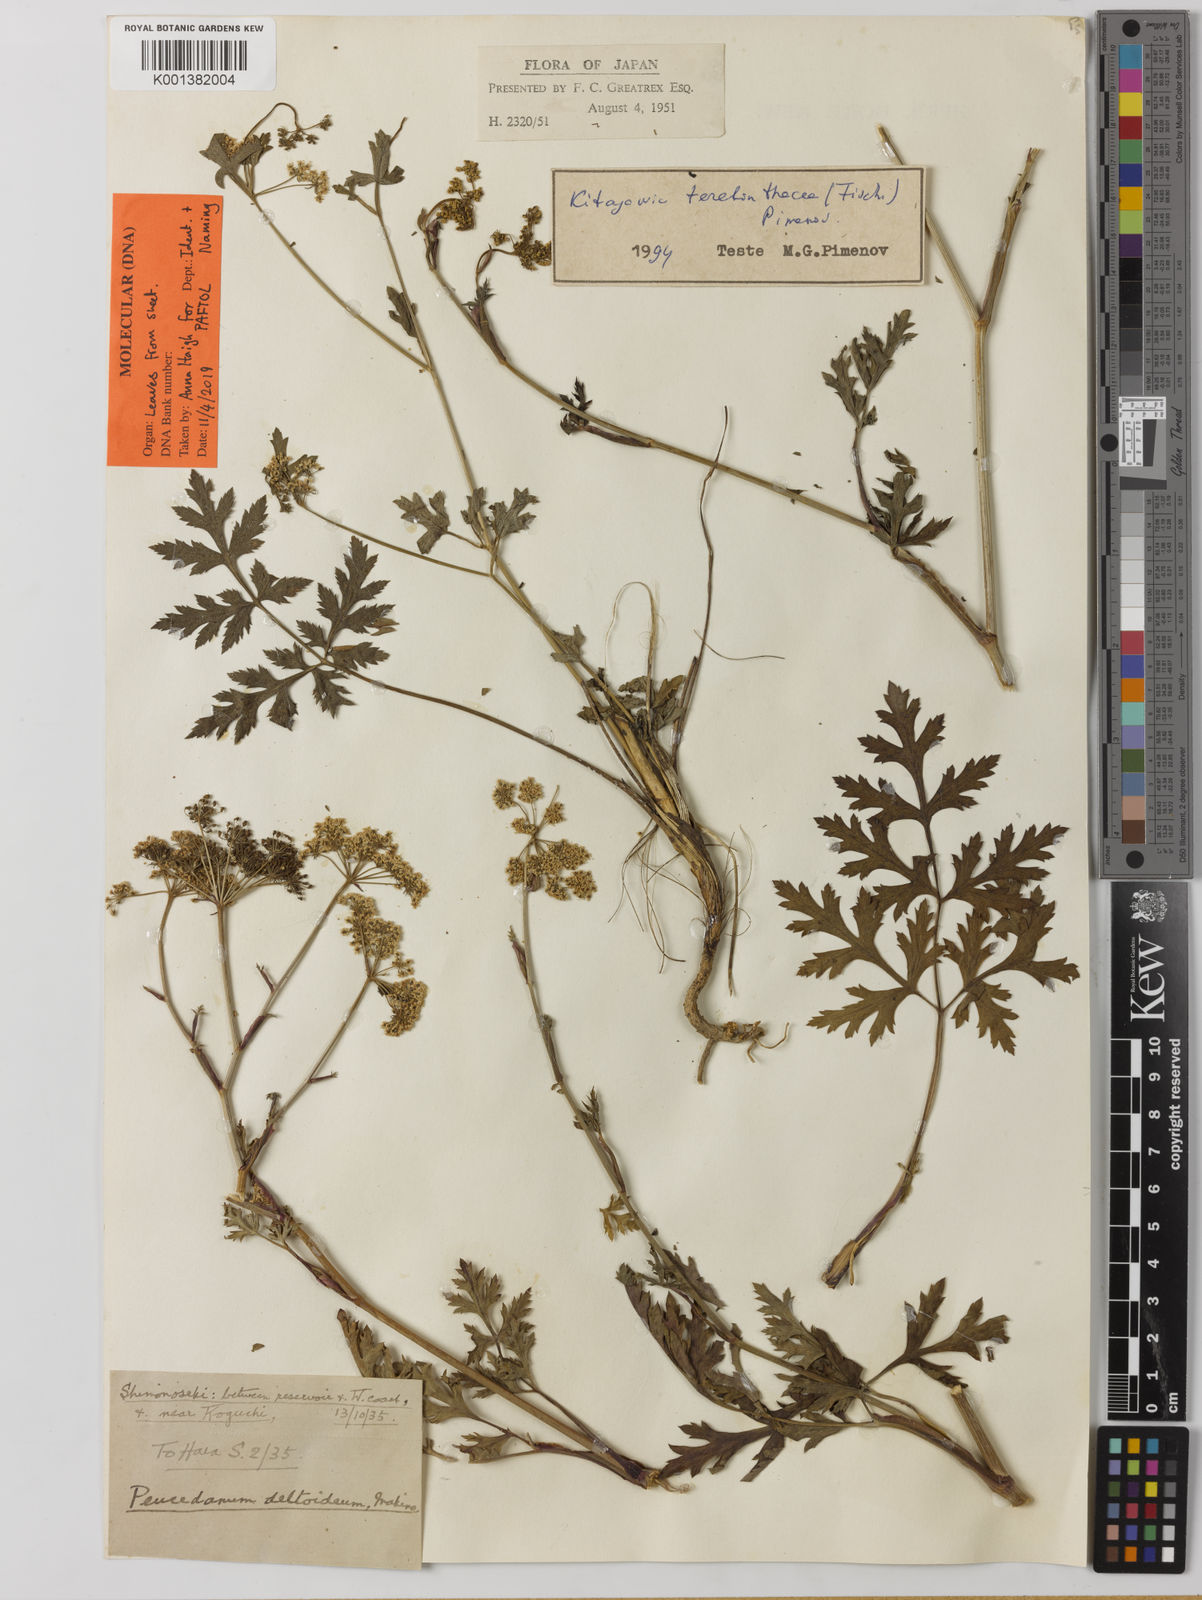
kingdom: Plantae
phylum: Tracheophyta
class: Magnoliopsida
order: Apiales
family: Apiaceae
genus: Kitagawia
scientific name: Kitagawia terebinthacea
